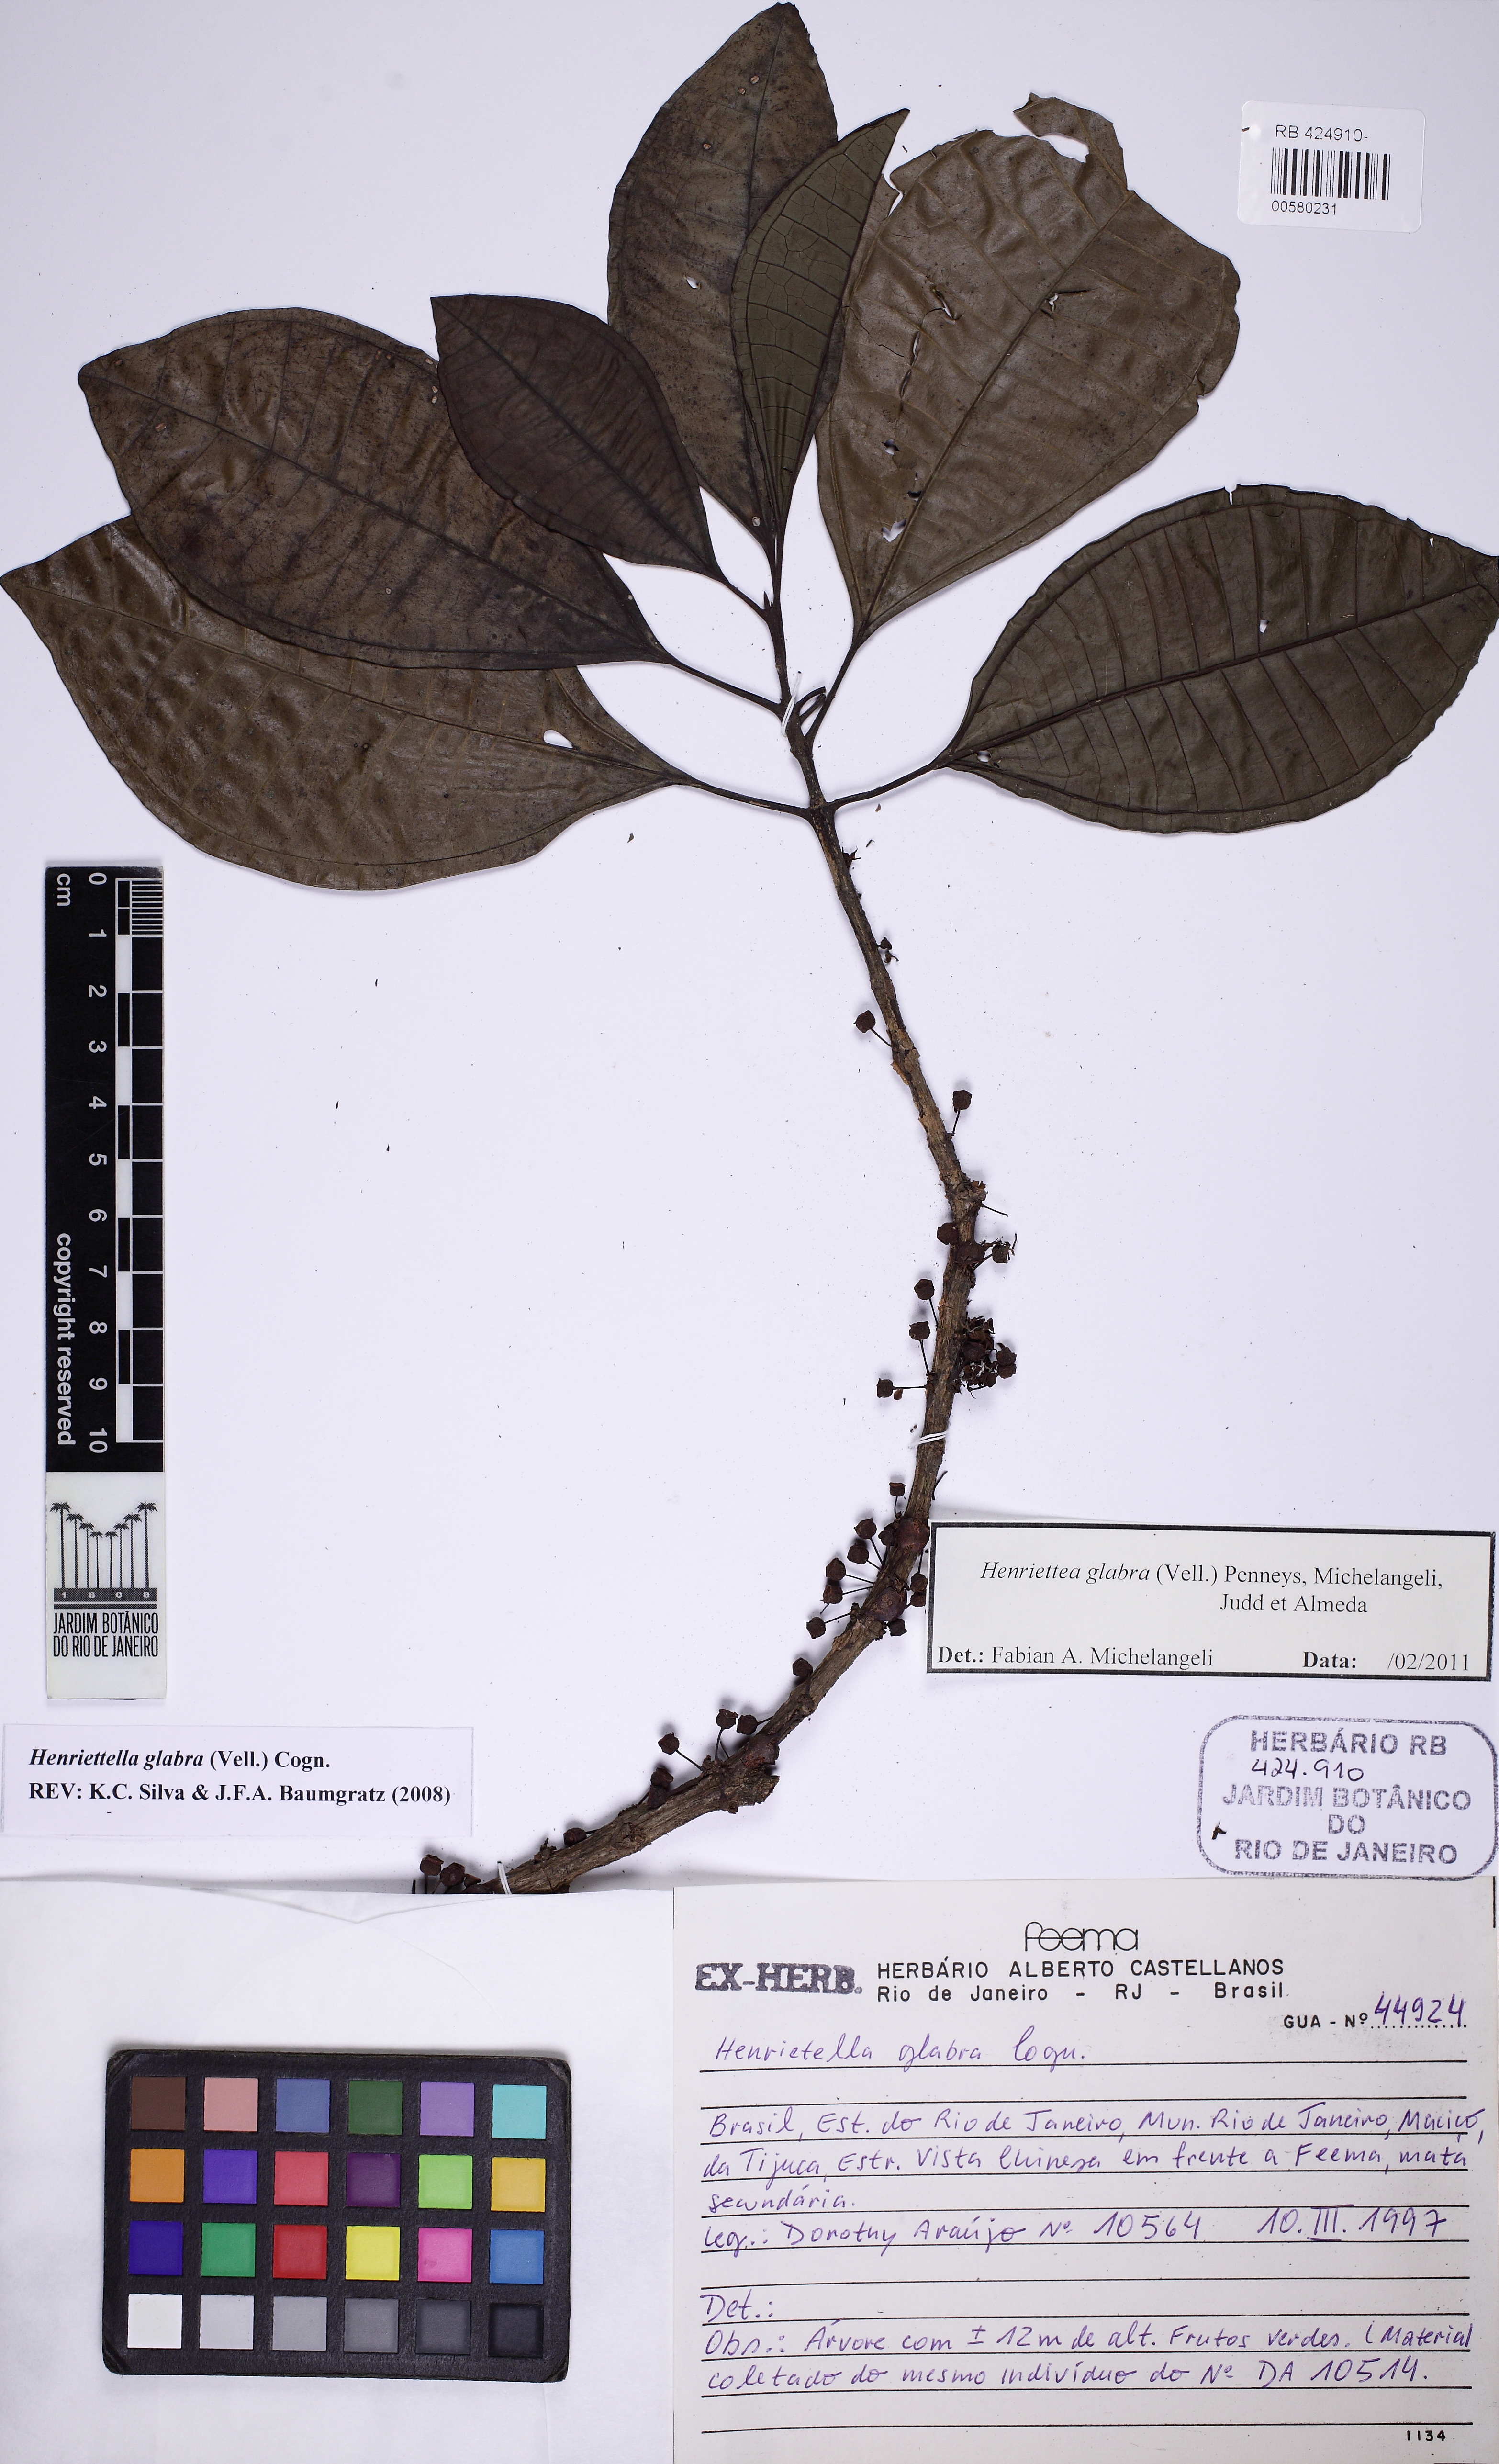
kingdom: Plantae
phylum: Tracheophyta
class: Magnoliopsida
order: Myrtales
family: Melastomataceae
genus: Henriettea
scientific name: Henriettea umbelluliflora
